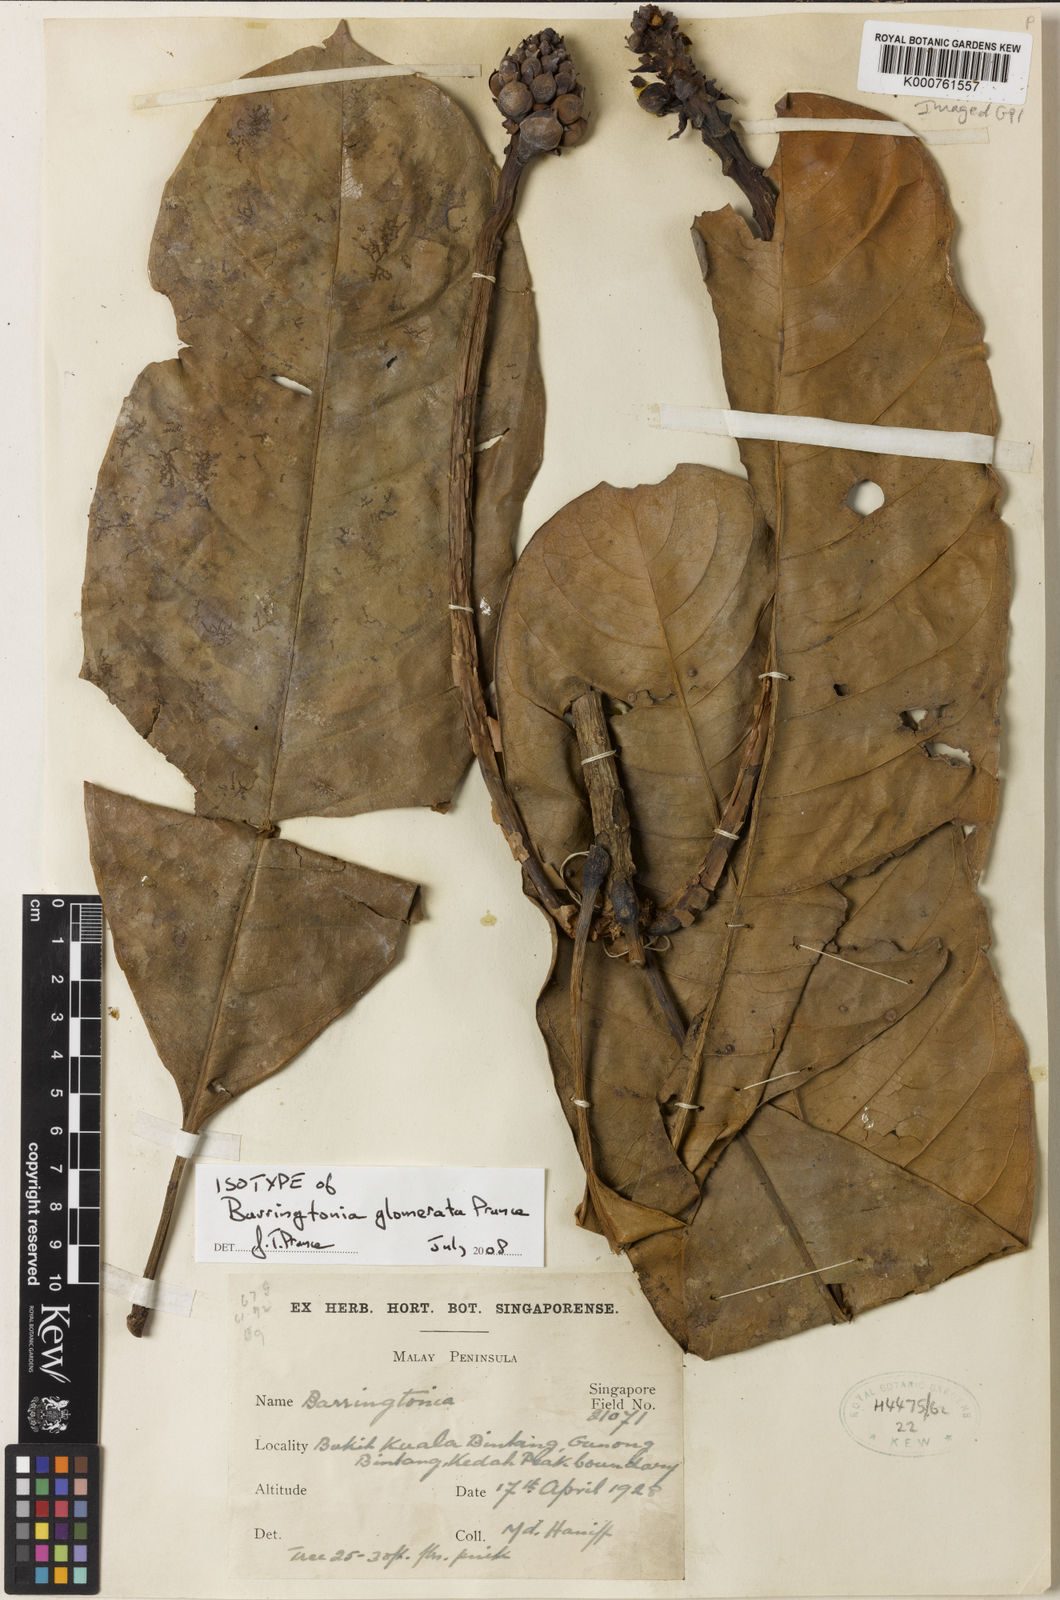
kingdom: Plantae
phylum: Tracheophyta
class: Magnoliopsida
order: Ericales
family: Lecythidaceae
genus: Barringtonia
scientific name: Barringtonia glomerata
